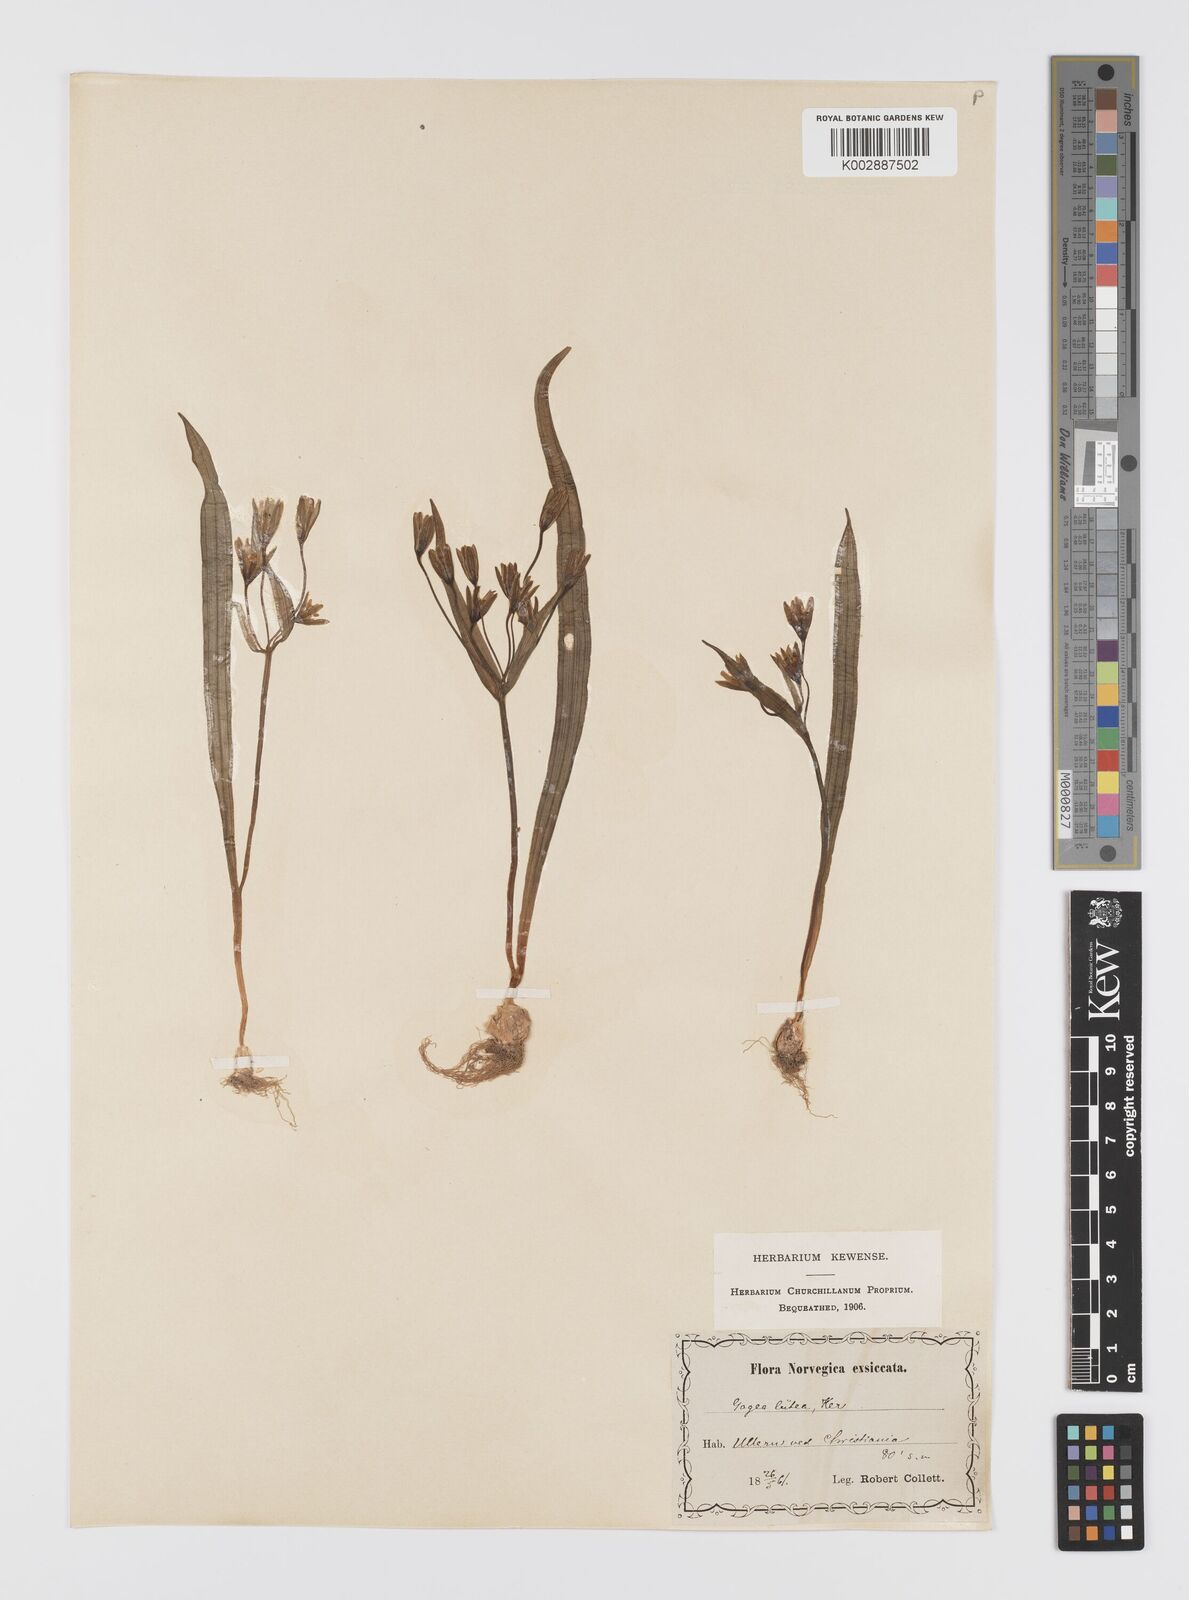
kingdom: Plantae
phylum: Tracheophyta
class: Liliopsida
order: Liliales
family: Liliaceae
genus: Gagea
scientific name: Gagea lutea
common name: Yellow star-of-bethlehem
